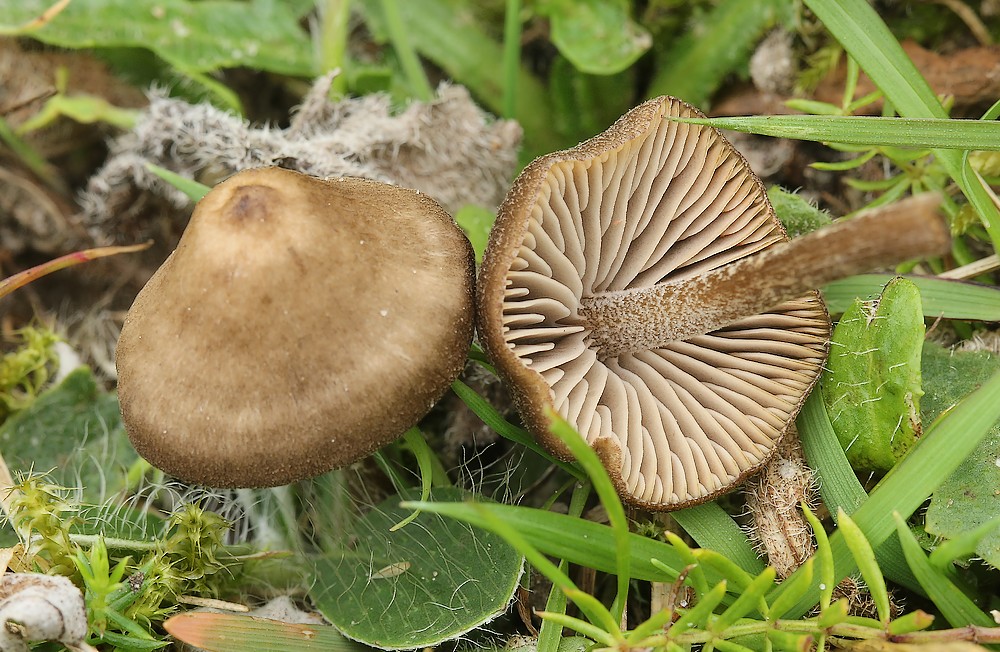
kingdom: Fungi
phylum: Basidiomycota
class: Agaricomycetes
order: Agaricales
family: Entolomataceae
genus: Entoloma
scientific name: Entoloma clandestinum
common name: tykbladet rødblad
